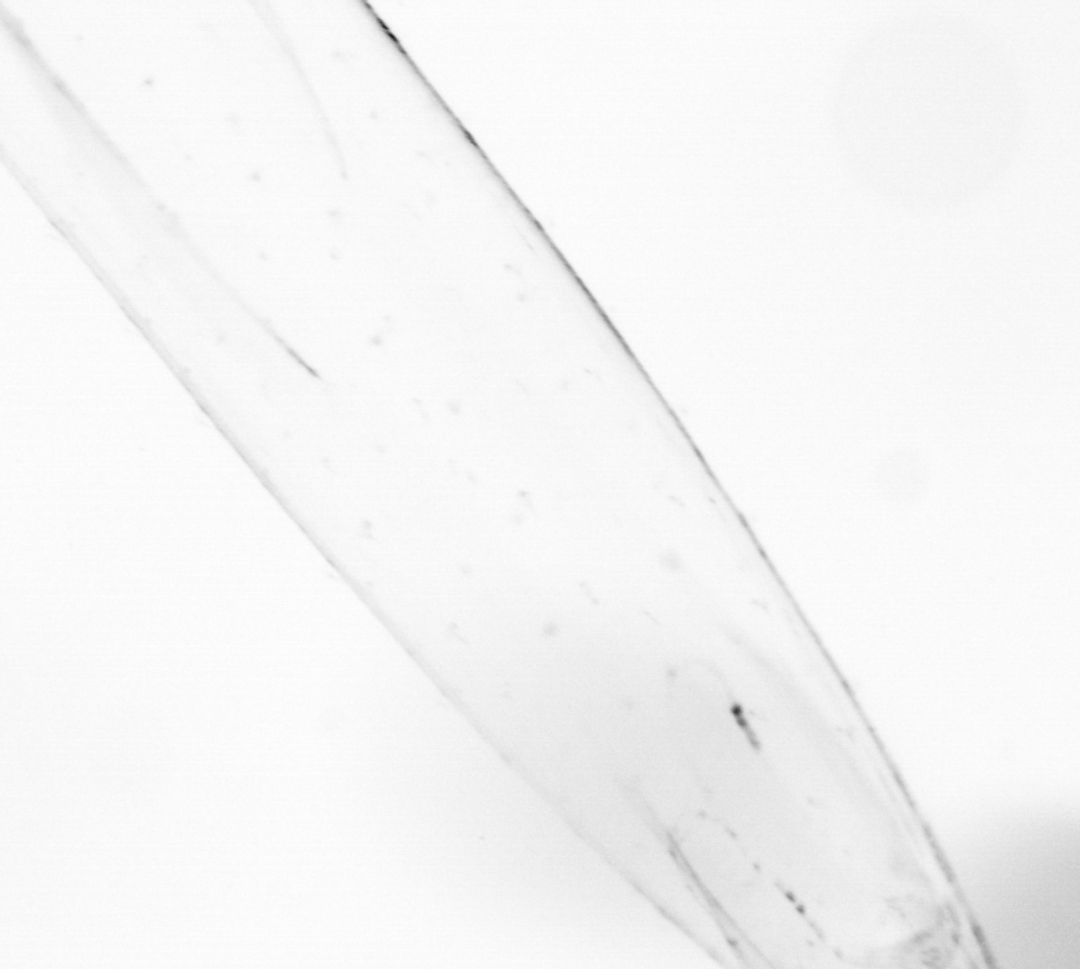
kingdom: Animalia
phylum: Chaetognatha
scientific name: Chaetognatha
